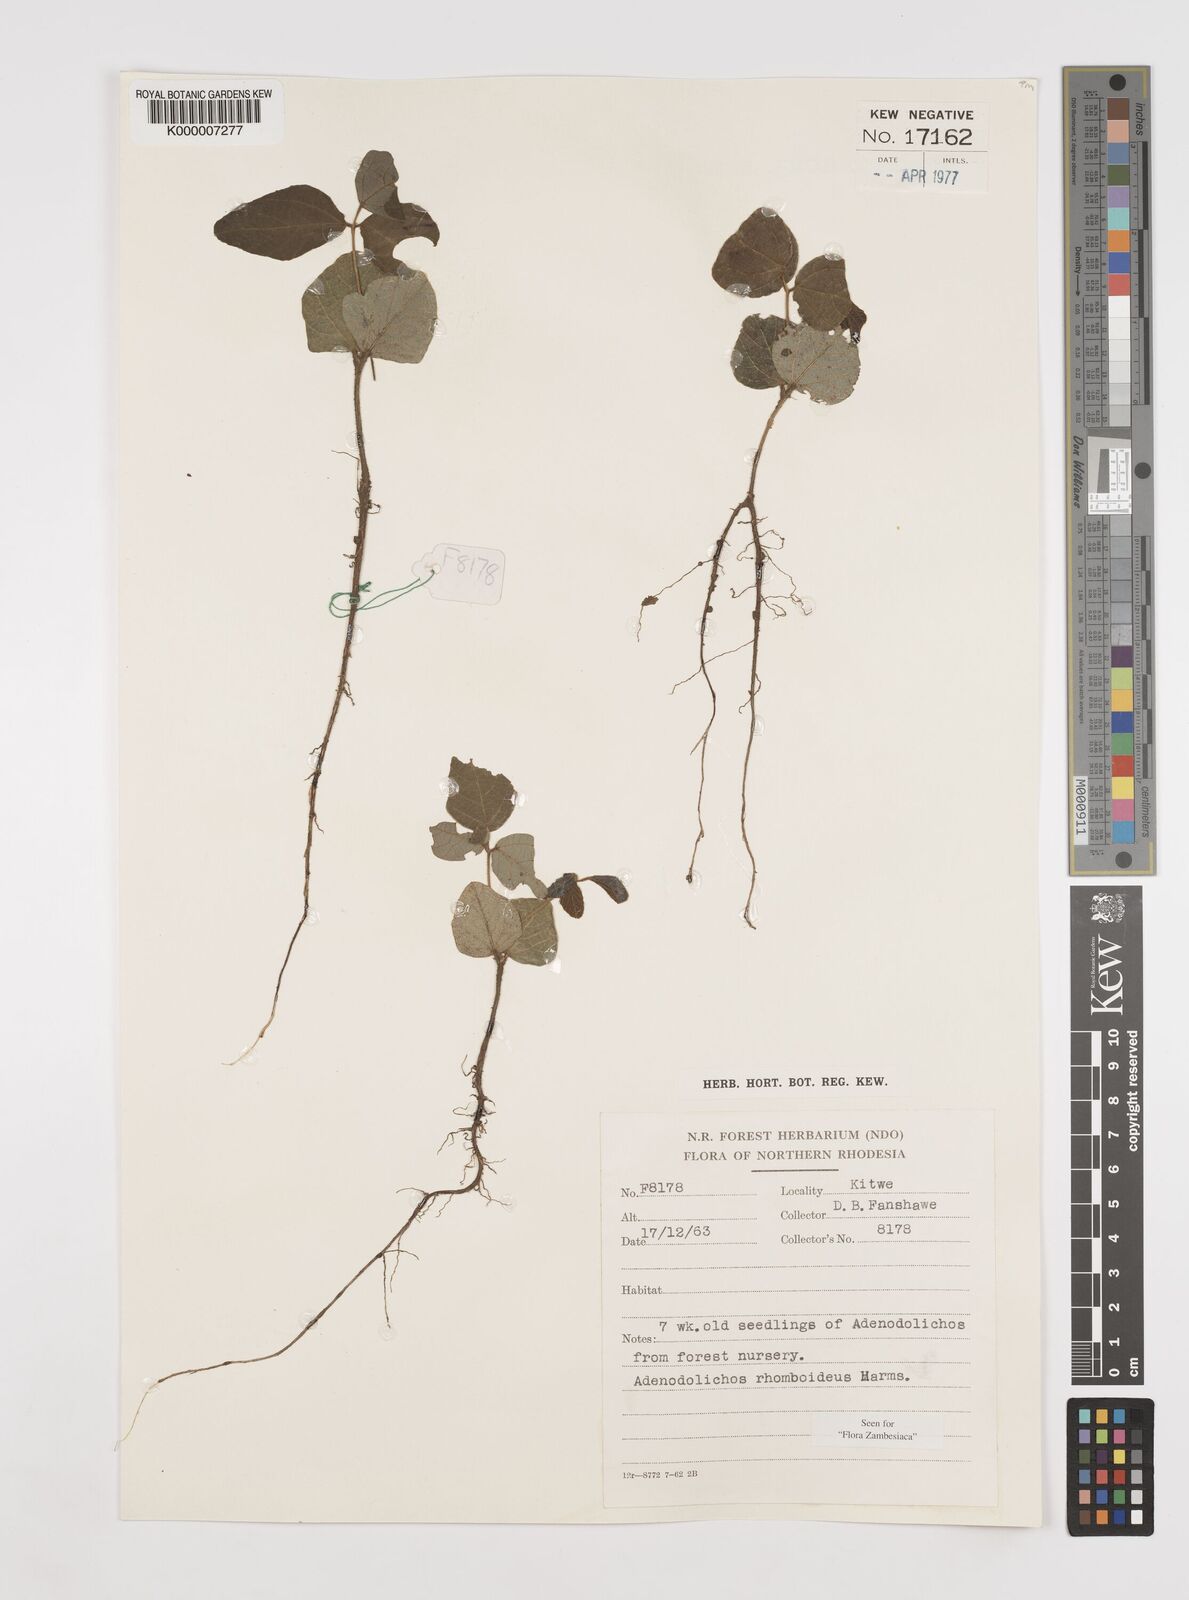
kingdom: Plantae
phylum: Tracheophyta
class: Magnoliopsida
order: Fabales
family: Fabaceae
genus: Adenodolichos
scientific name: Adenodolichos rhomboideus
